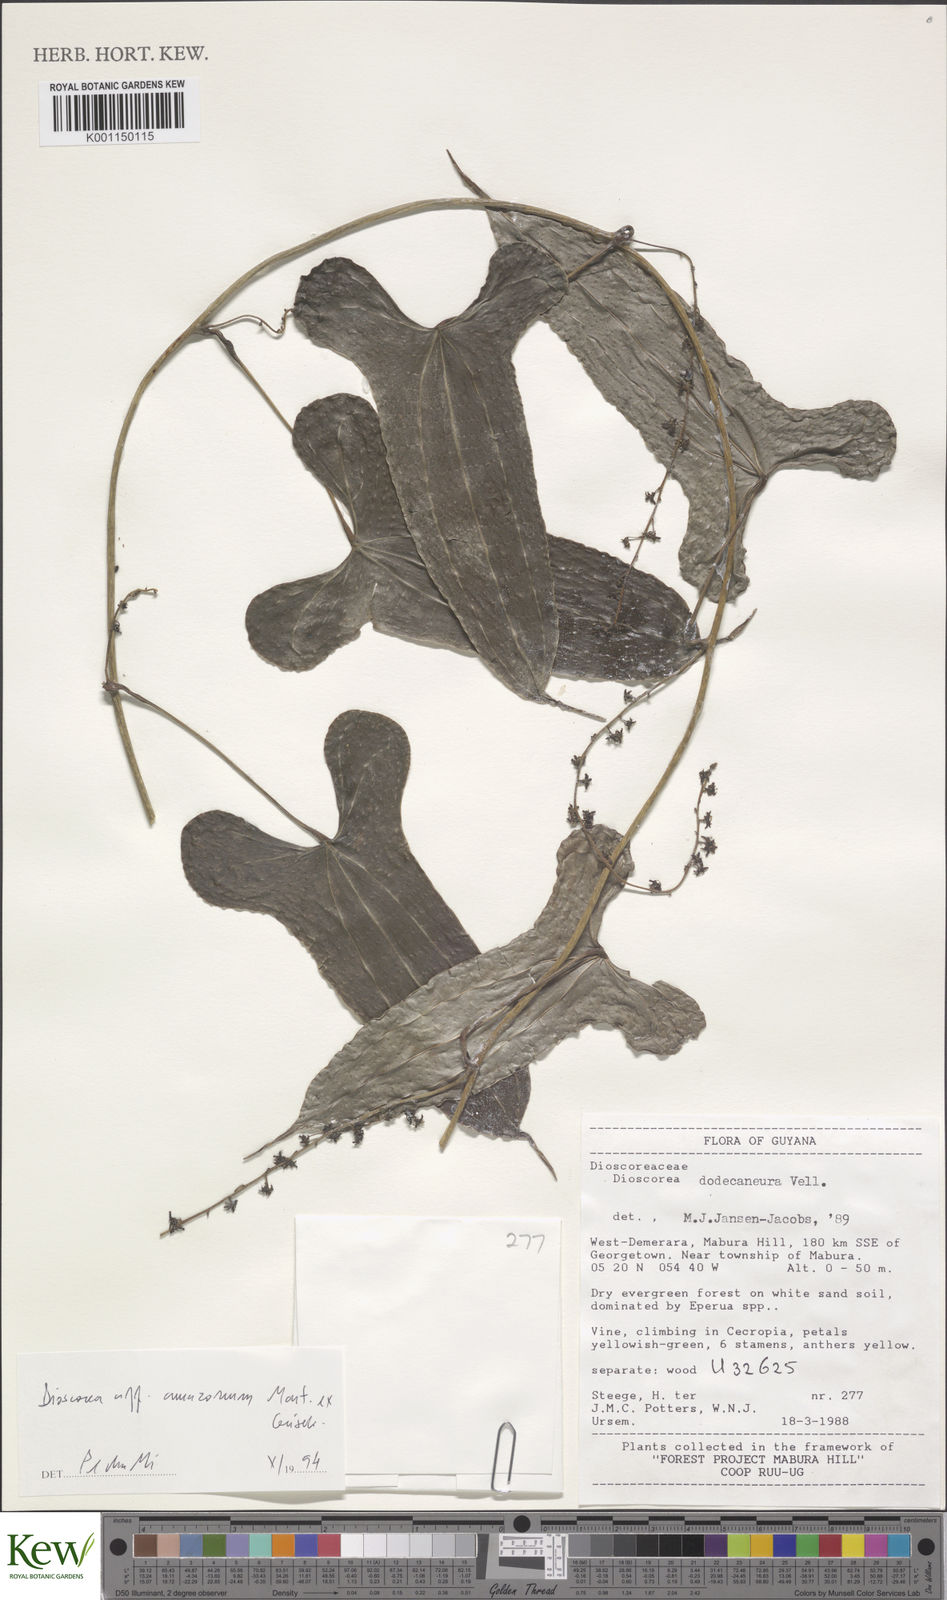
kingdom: Plantae
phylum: Tracheophyta
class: Liliopsida
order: Dioscoreales
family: Dioscoreaceae
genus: Dioscorea
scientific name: Dioscorea trichanthera
